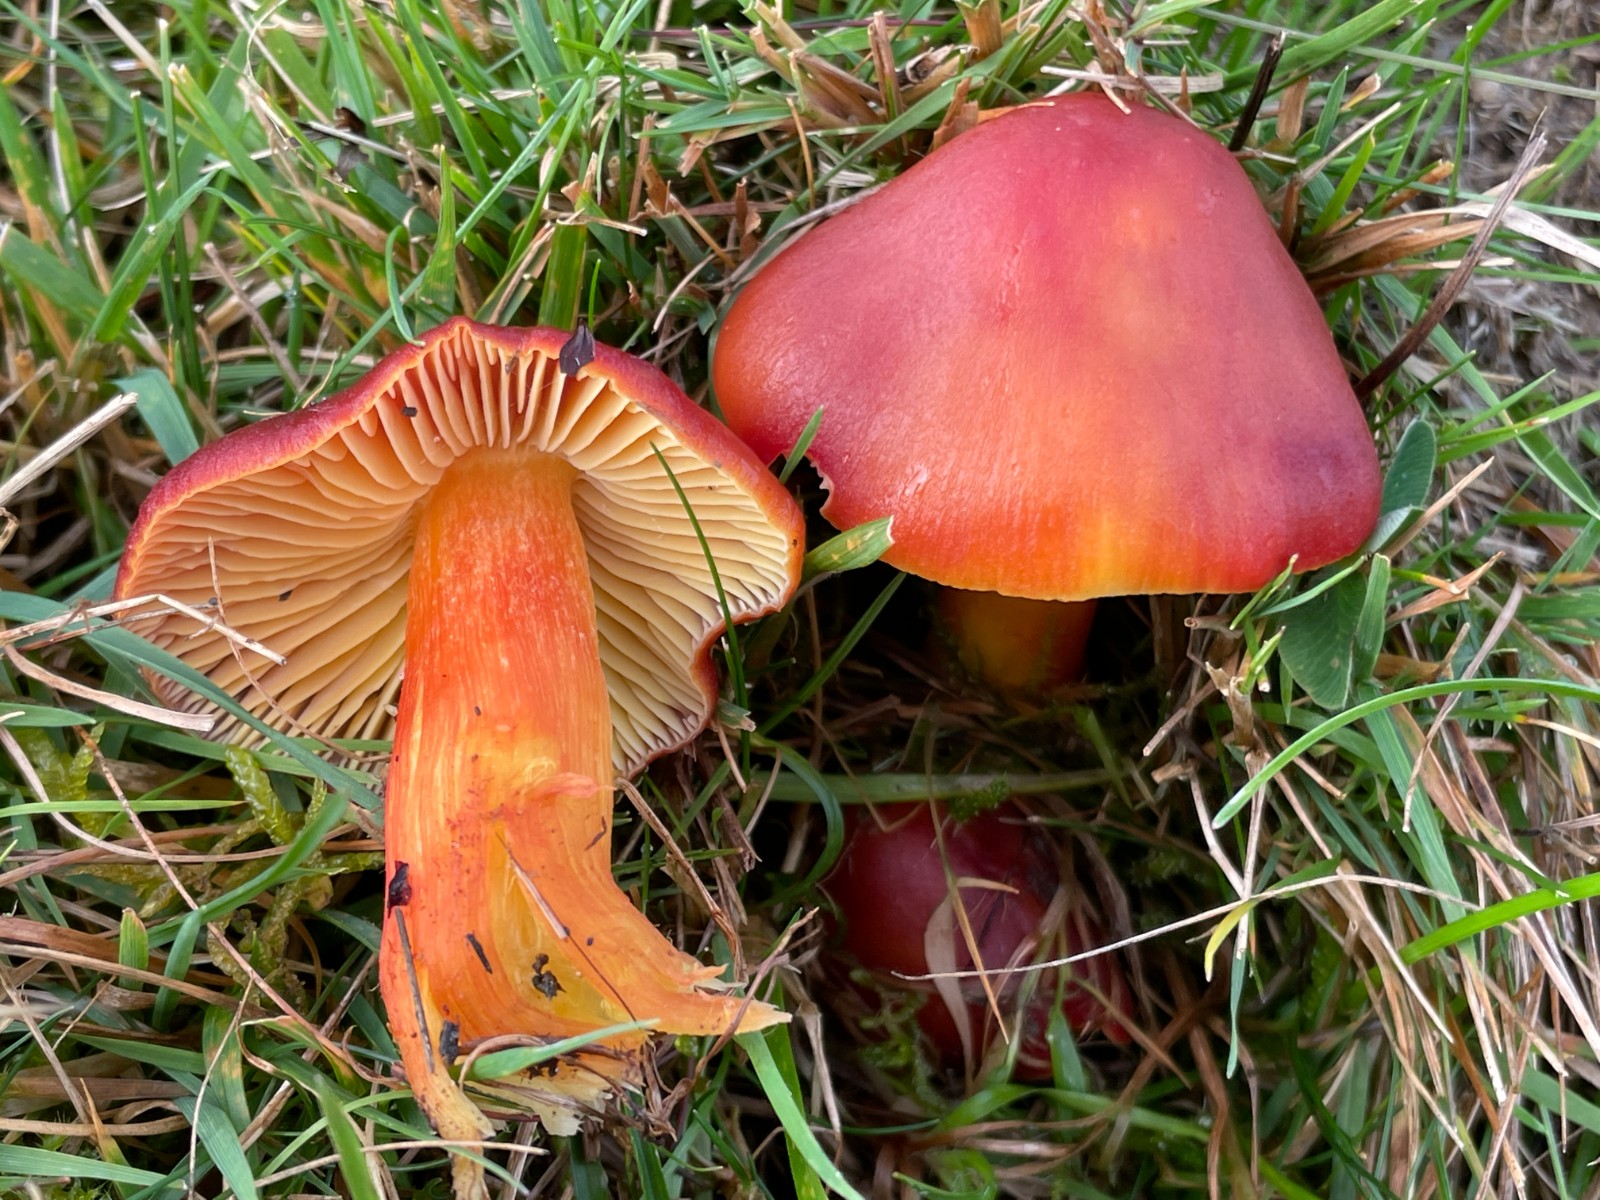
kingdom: Fungi
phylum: Basidiomycota
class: Agaricomycetes
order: Agaricales
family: Hygrophoraceae
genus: Hygrocybe
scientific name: Hygrocybe punicea
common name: skarlagen-vokshat
